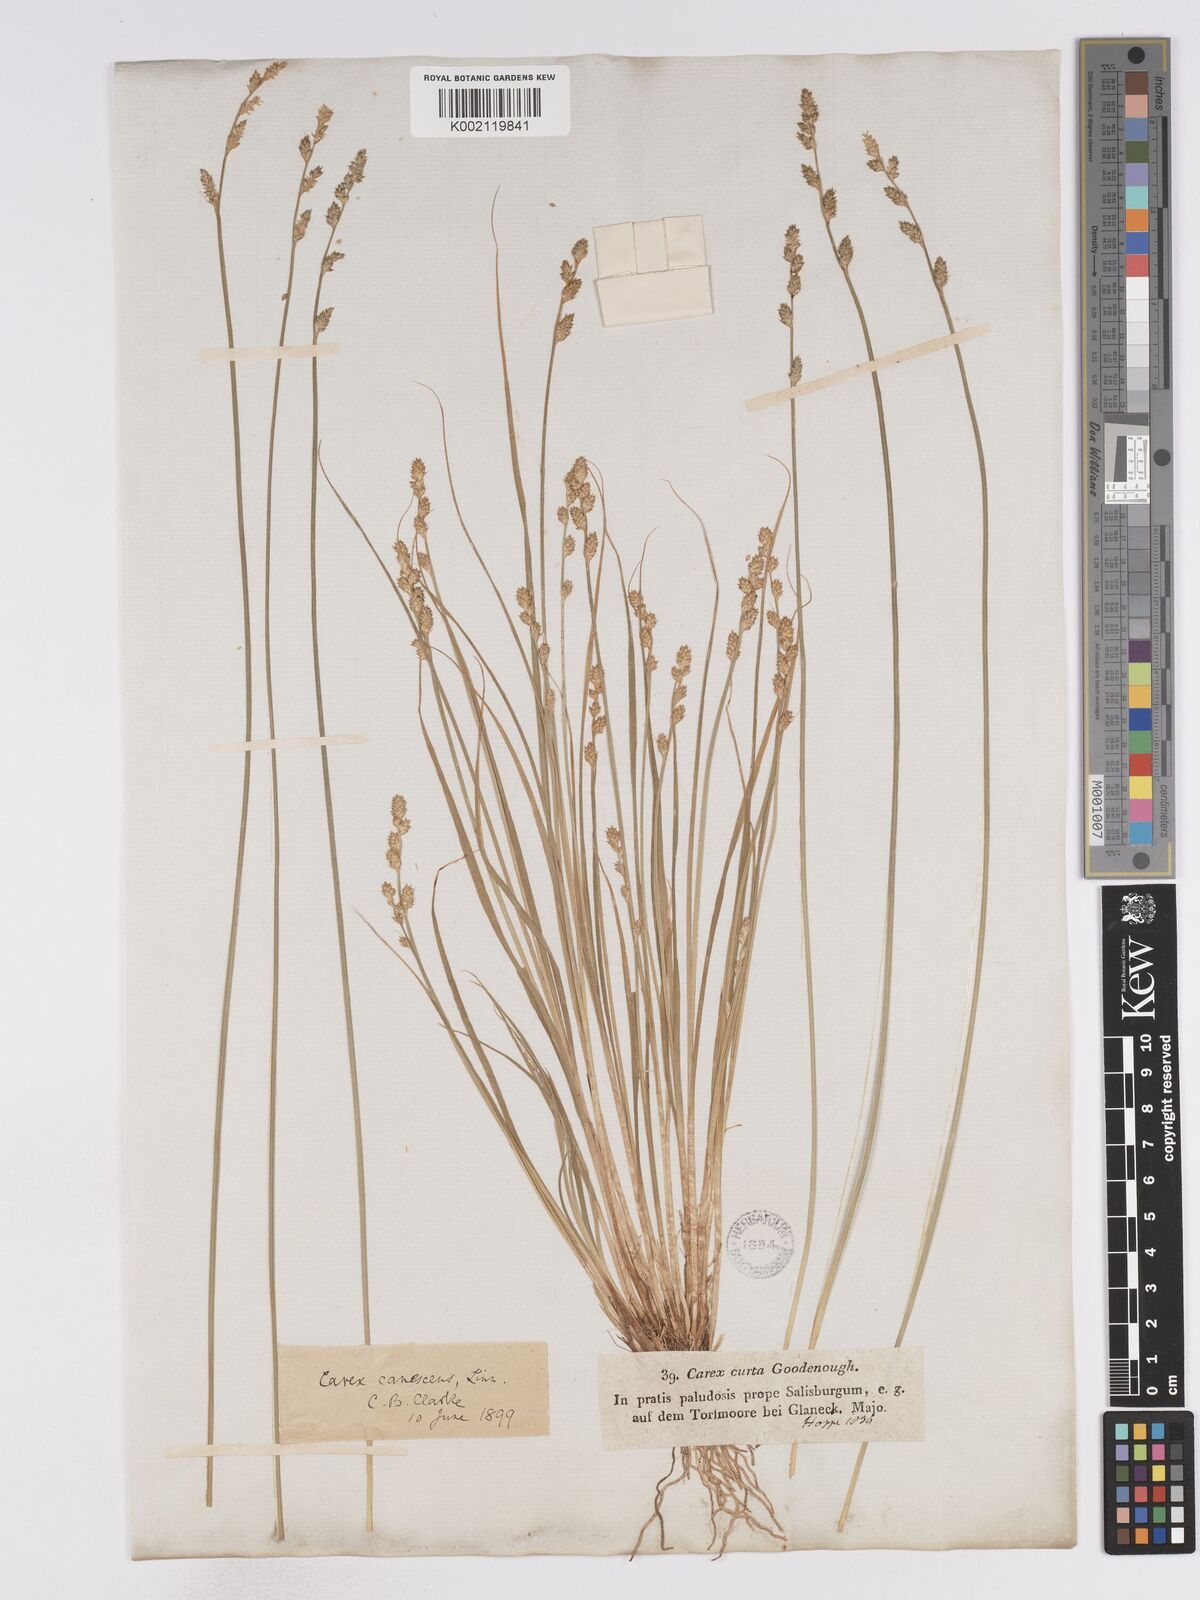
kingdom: Plantae
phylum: Tracheophyta
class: Liliopsida
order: Poales
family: Cyperaceae
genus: Carex
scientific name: Carex curta
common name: White sedge
